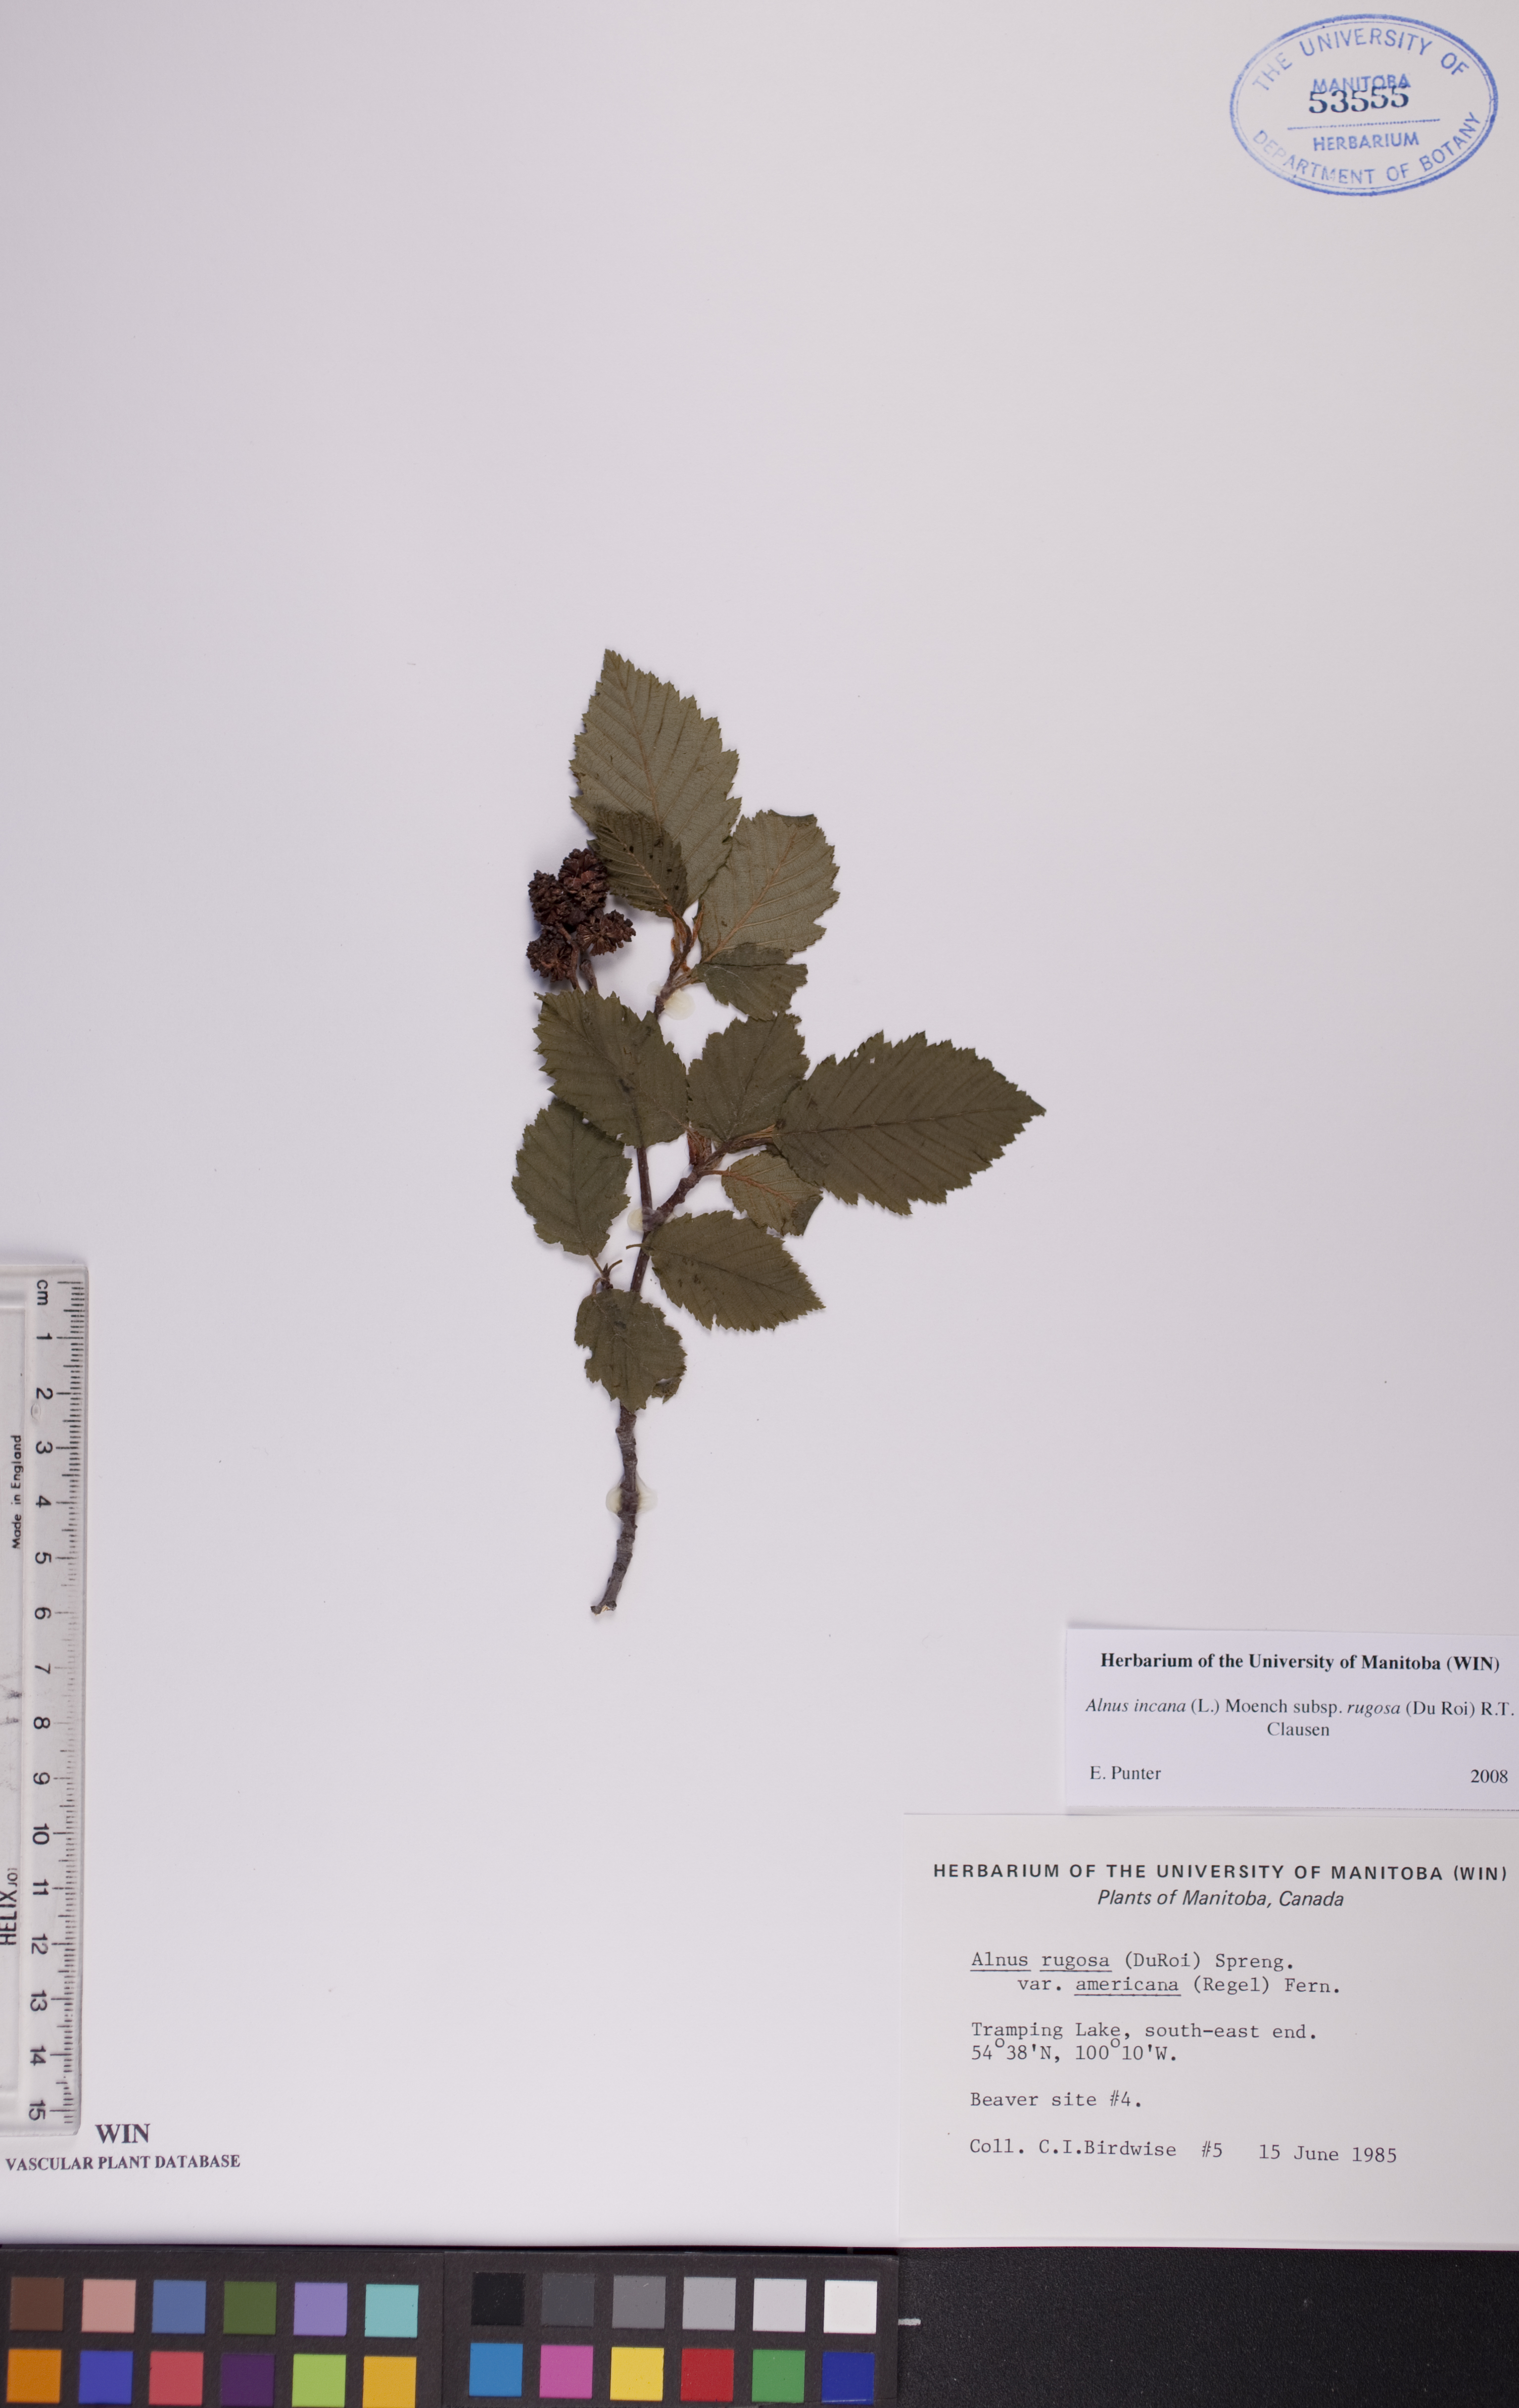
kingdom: Plantae
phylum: Tracheophyta
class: Magnoliopsida
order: Fagales
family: Betulaceae
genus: Alnus
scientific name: Alnus incana
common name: Grey alder
